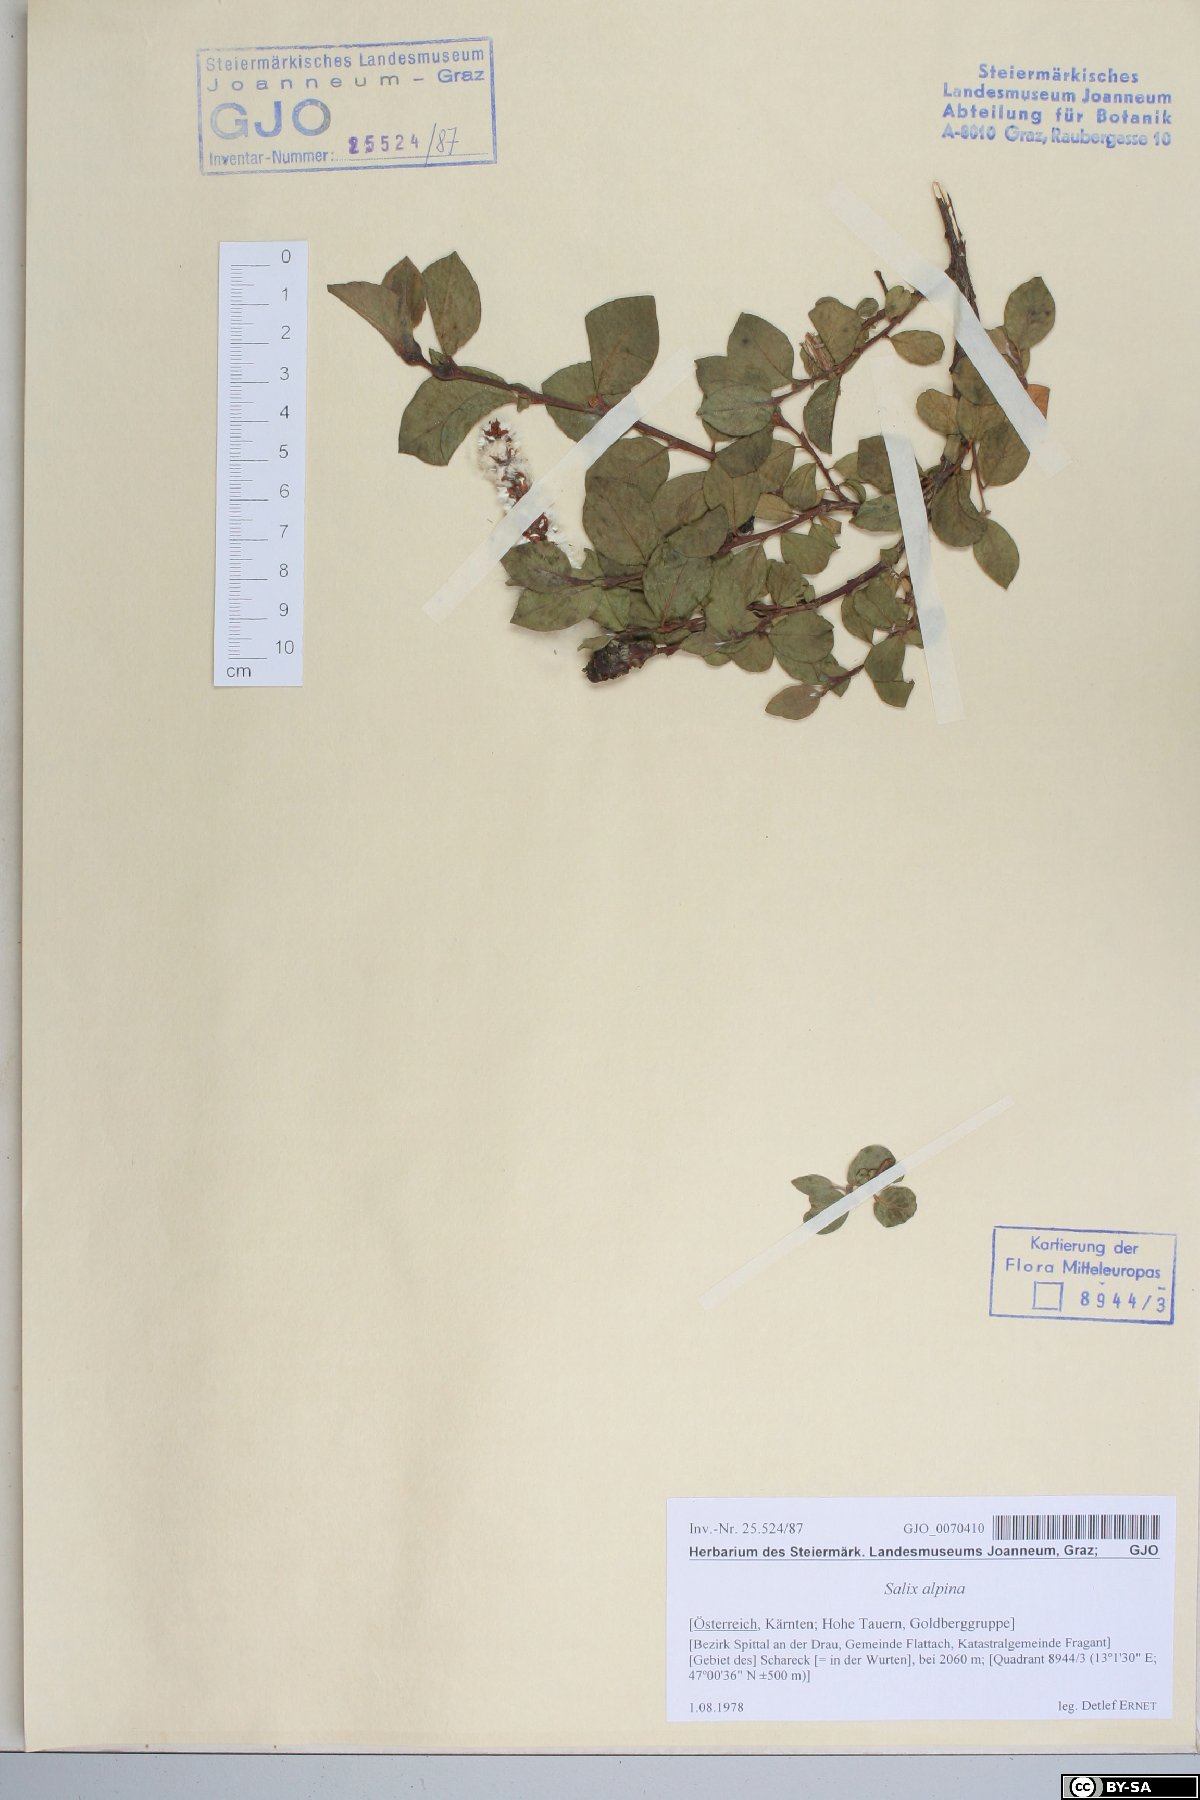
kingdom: Plantae
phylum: Tracheophyta
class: Magnoliopsida
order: Malpighiales
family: Salicaceae
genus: Salix
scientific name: Salix alpina
